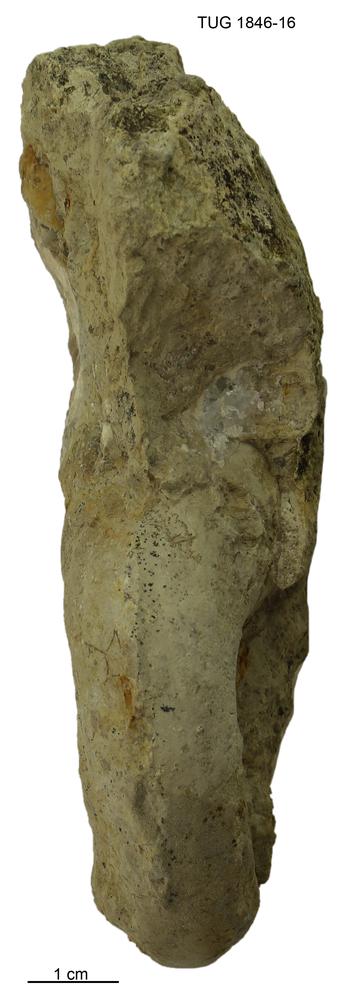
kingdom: Animalia
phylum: Mollusca
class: Gastropoda
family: Bucaniidae
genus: Boiotremus
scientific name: Boiotremus Tremanotus longitudinalis
